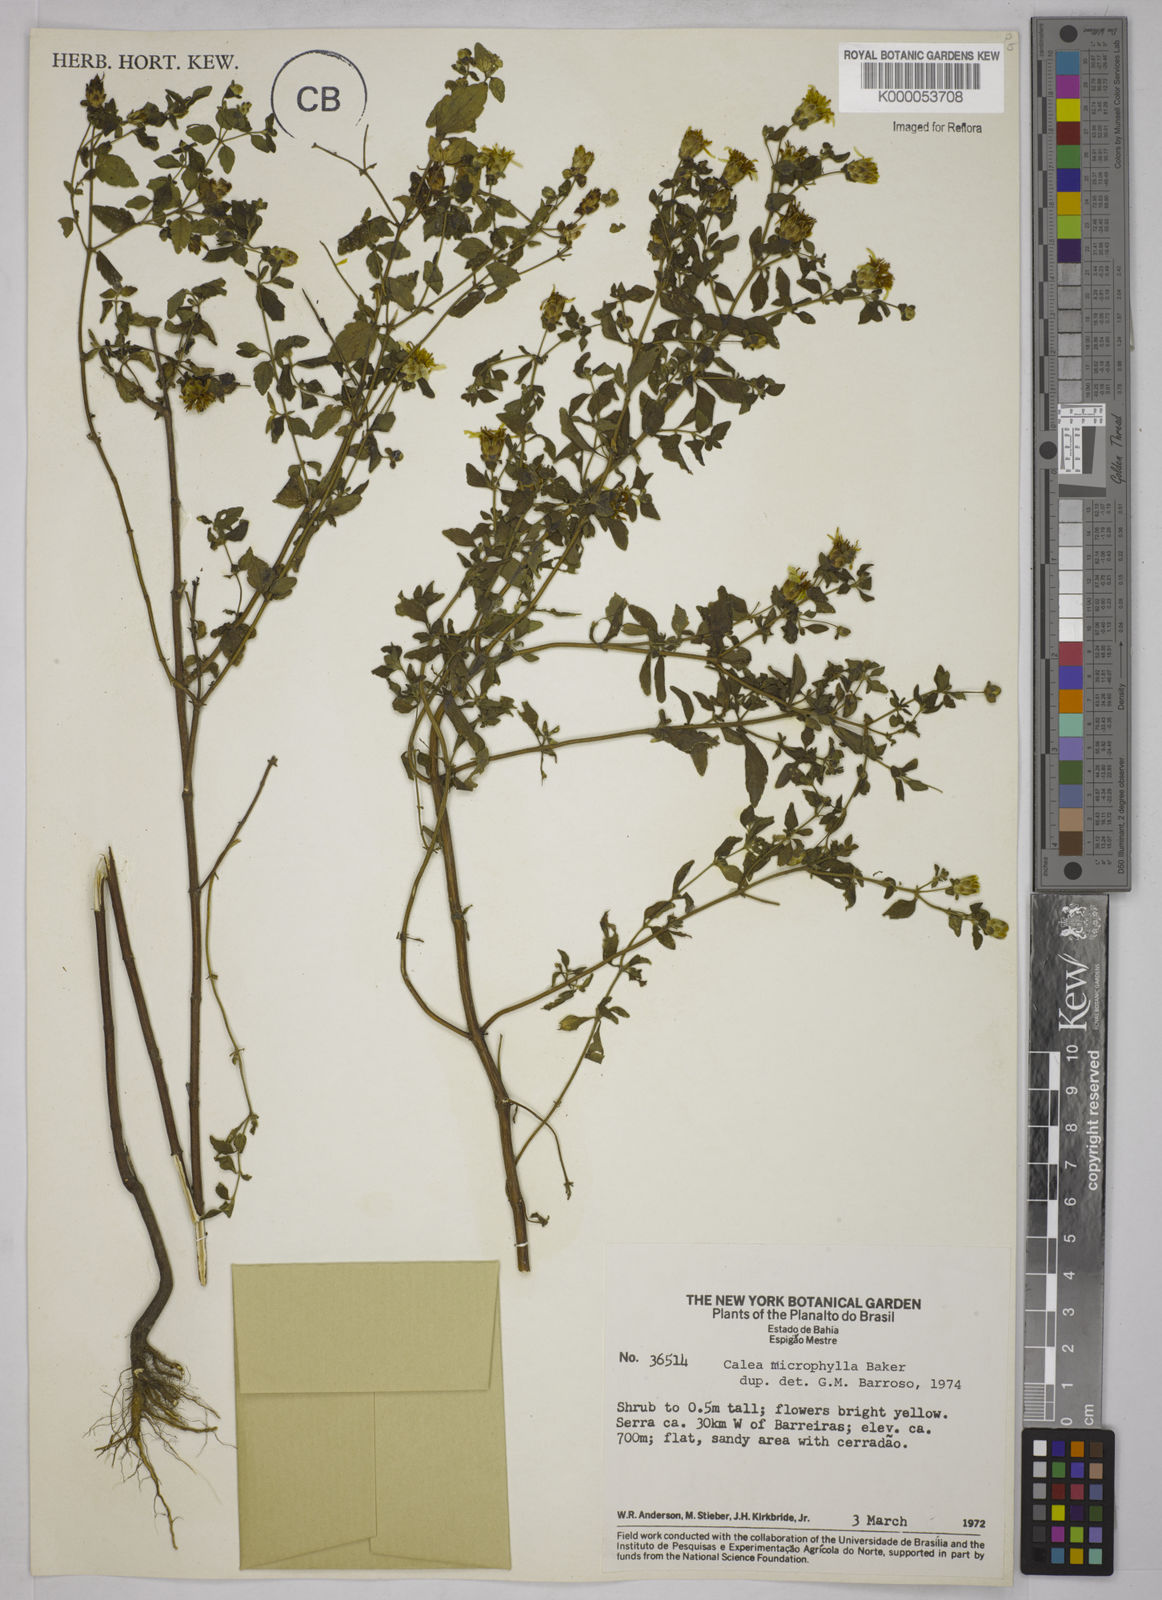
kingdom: Plantae
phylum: Tracheophyta
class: Magnoliopsida
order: Asterales
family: Asteraceae
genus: Calea
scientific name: Calea microphylla
